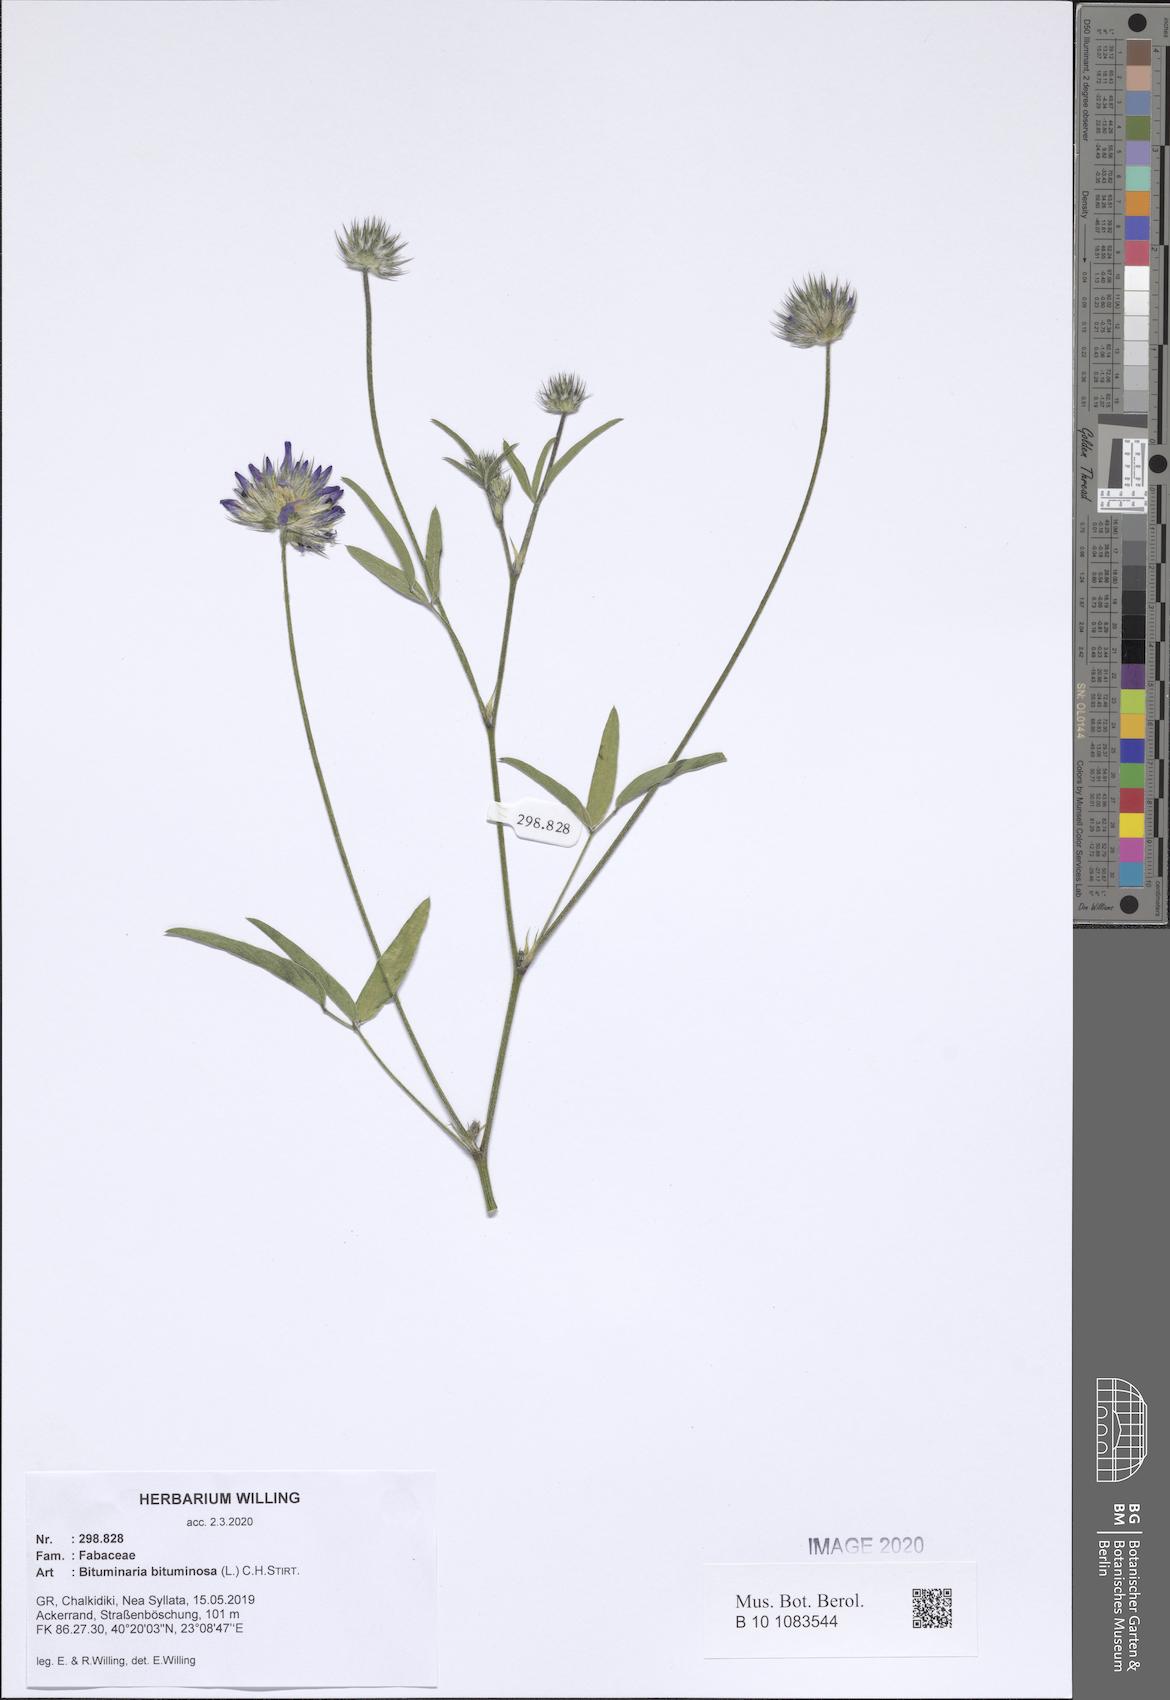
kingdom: Plantae
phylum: Tracheophyta
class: Magnoliopsida
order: Fabales
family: Fabaceae
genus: Bituminaria
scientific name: Bituminaria bituminosa
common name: Arabian pea
